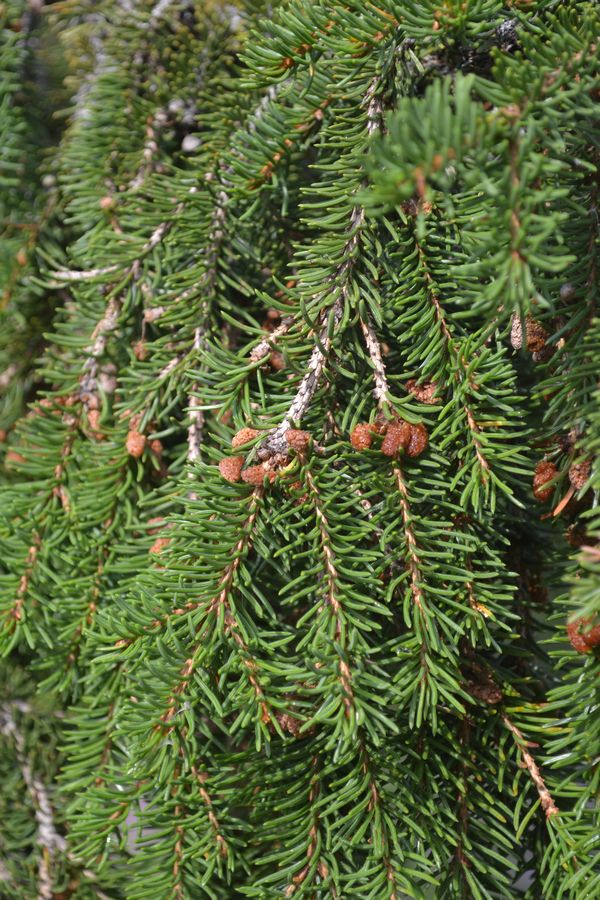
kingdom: Plantae
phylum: Tracheophyta
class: Pinopsida
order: Pinales
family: Pinaceae
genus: Picea
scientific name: Picea
